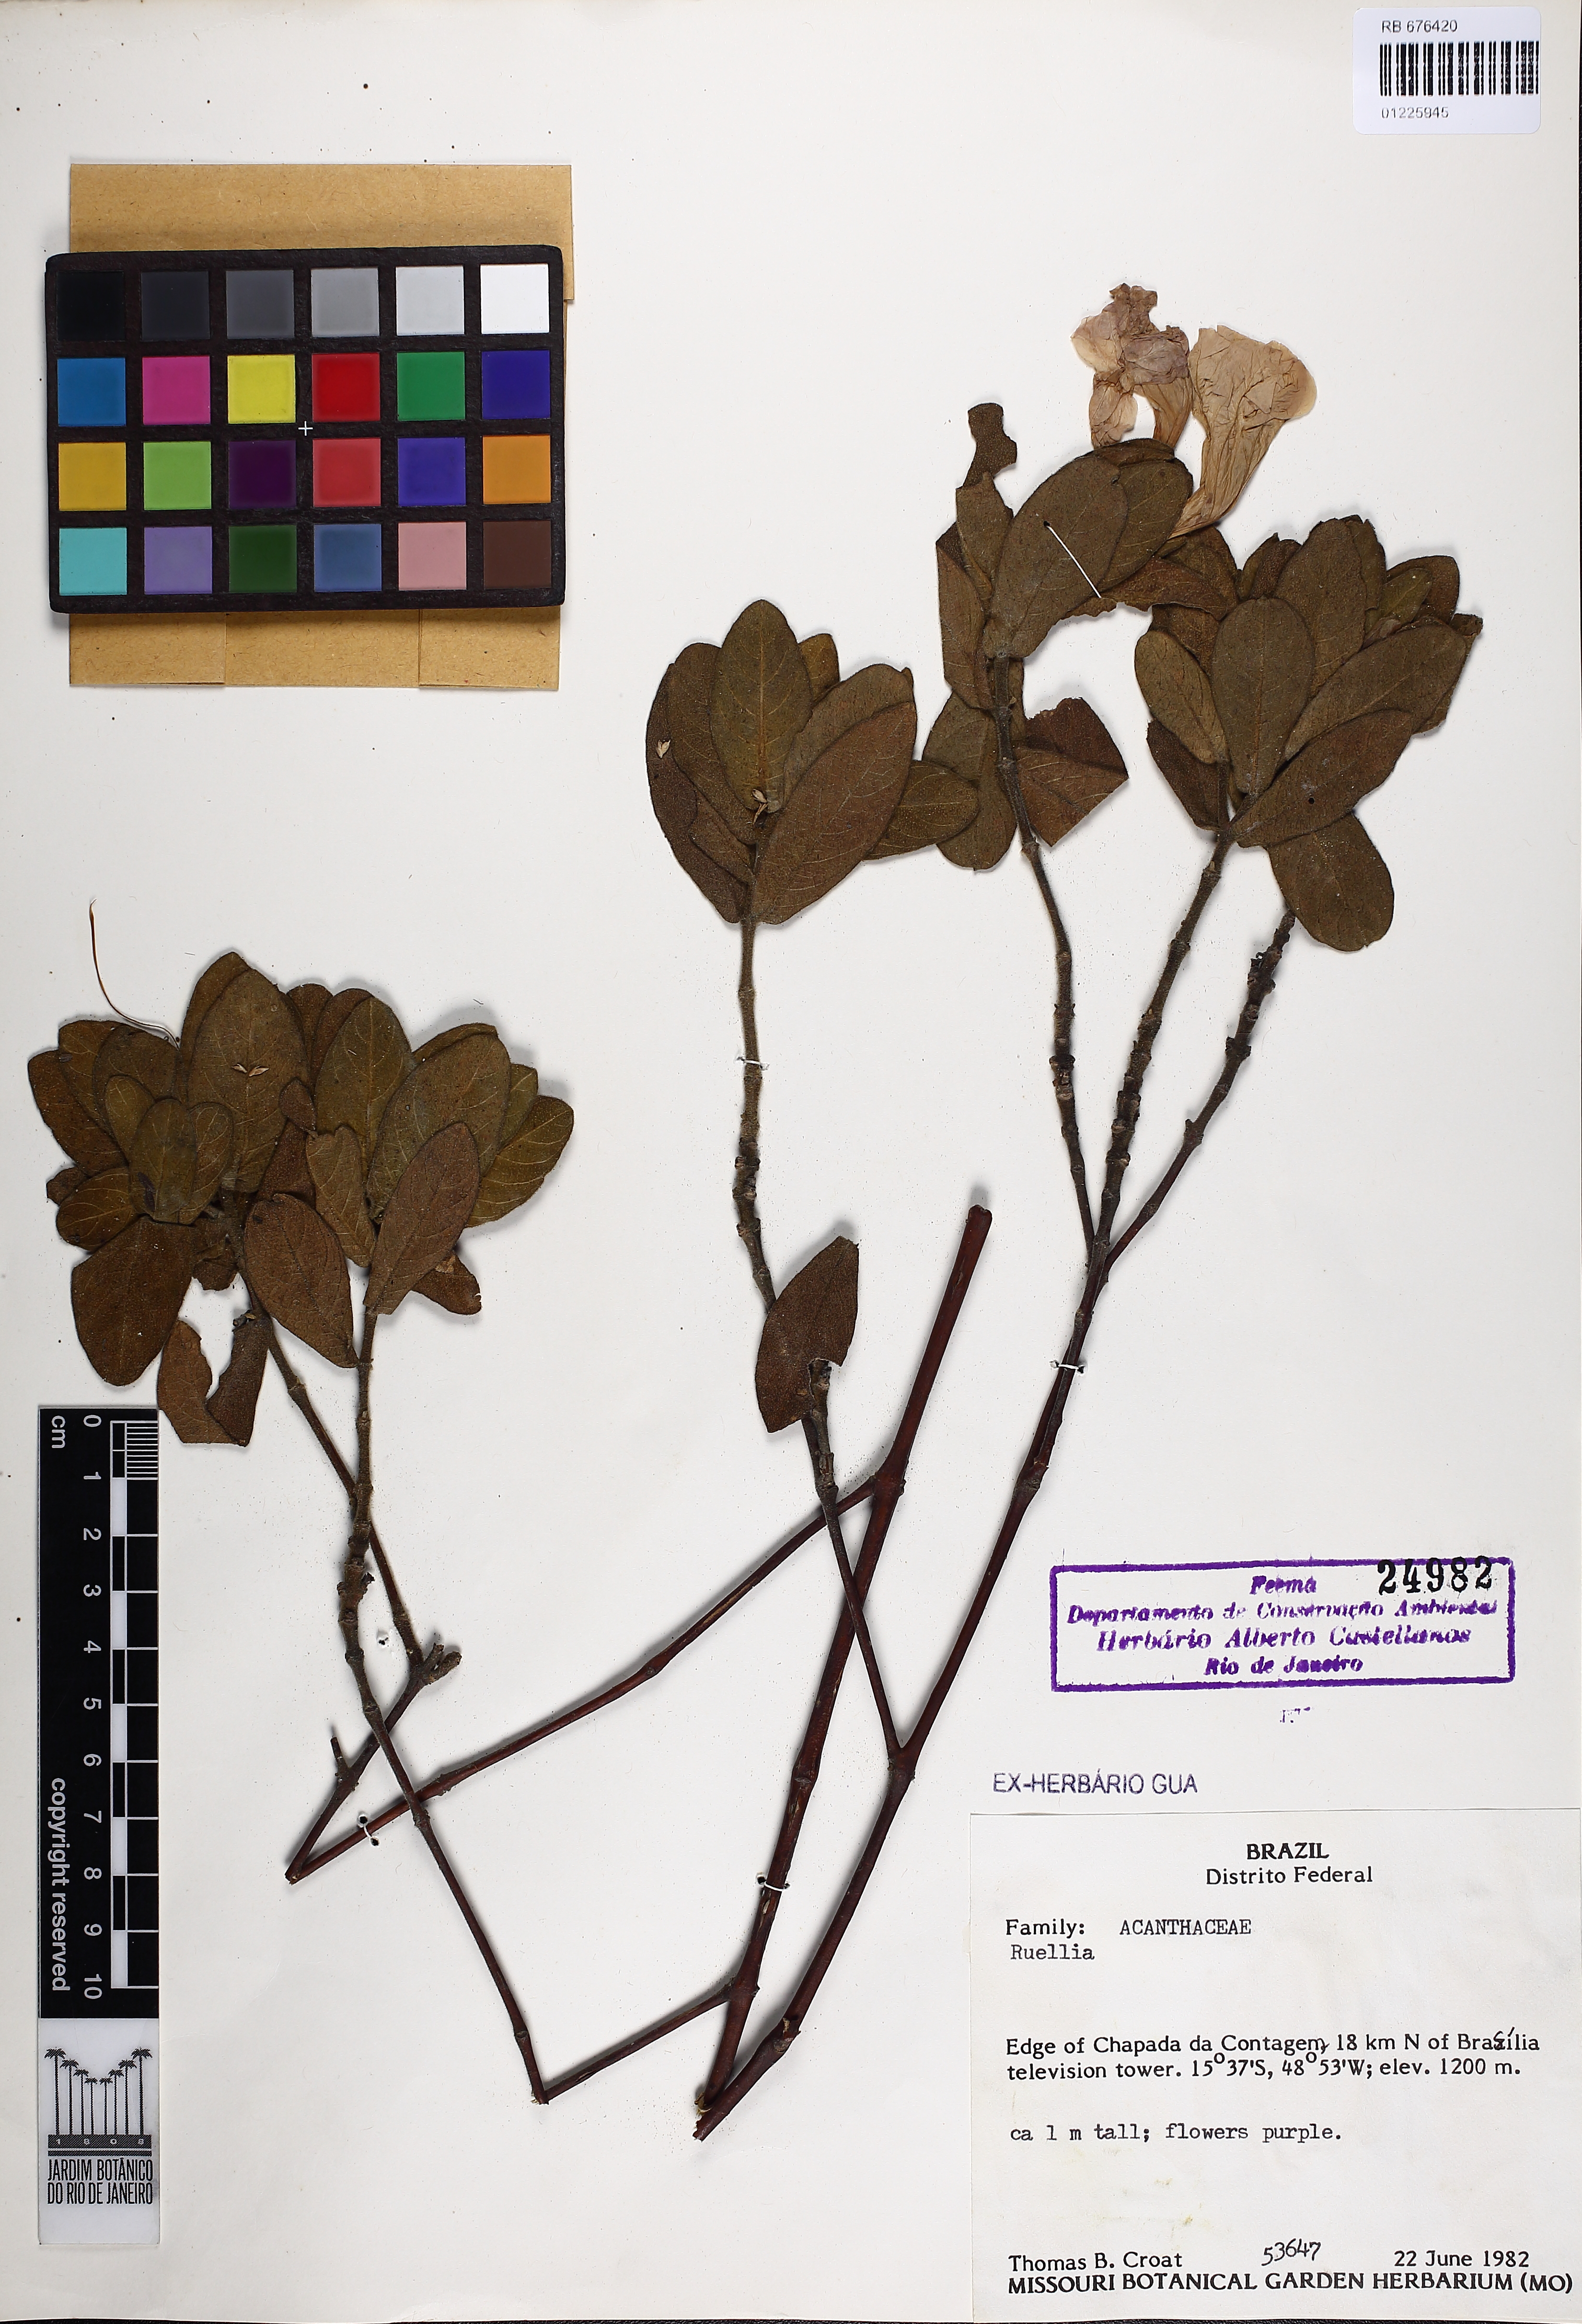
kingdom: Plantae
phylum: Tracheophyta
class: Magnoliopsida
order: Lamiales
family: Acanthaceae
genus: Ruellia
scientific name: Ruellia
